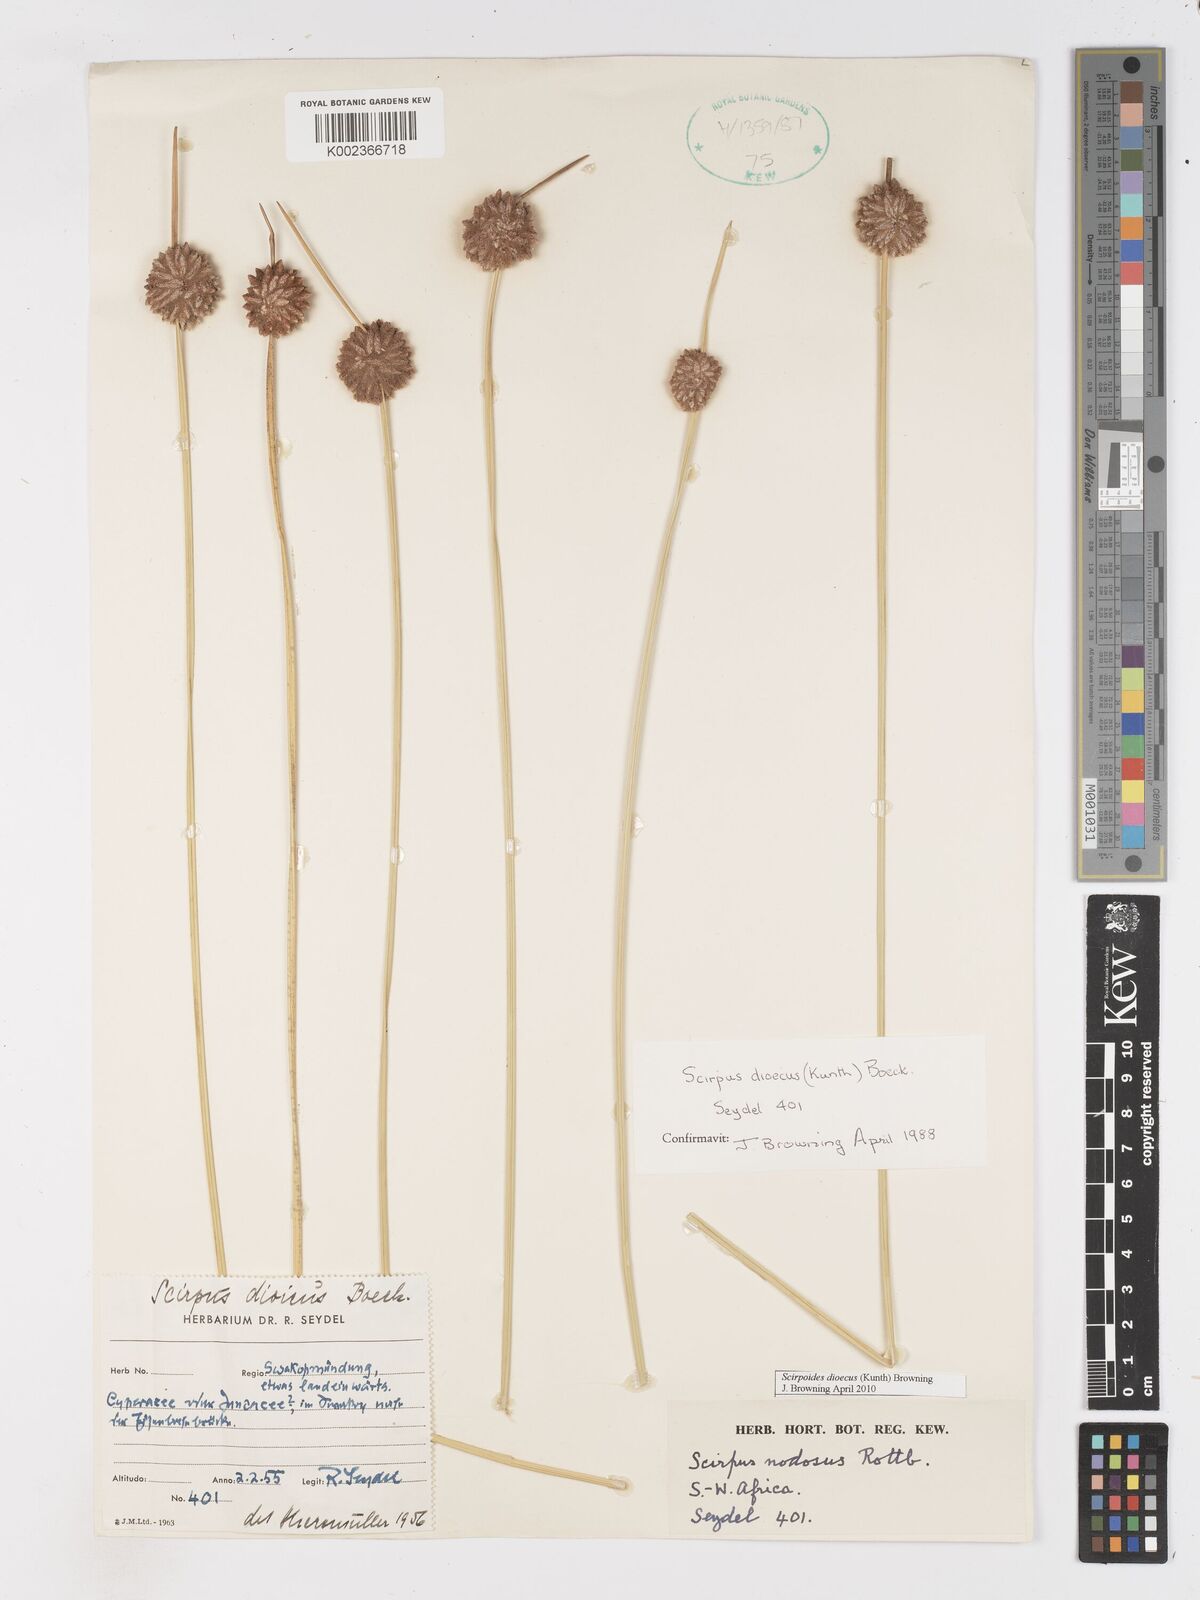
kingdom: Plantae
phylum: Tracheophyta
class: Liliopsida
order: Poales
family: Cyperaceae
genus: Scirpoides
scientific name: Scirpoides
